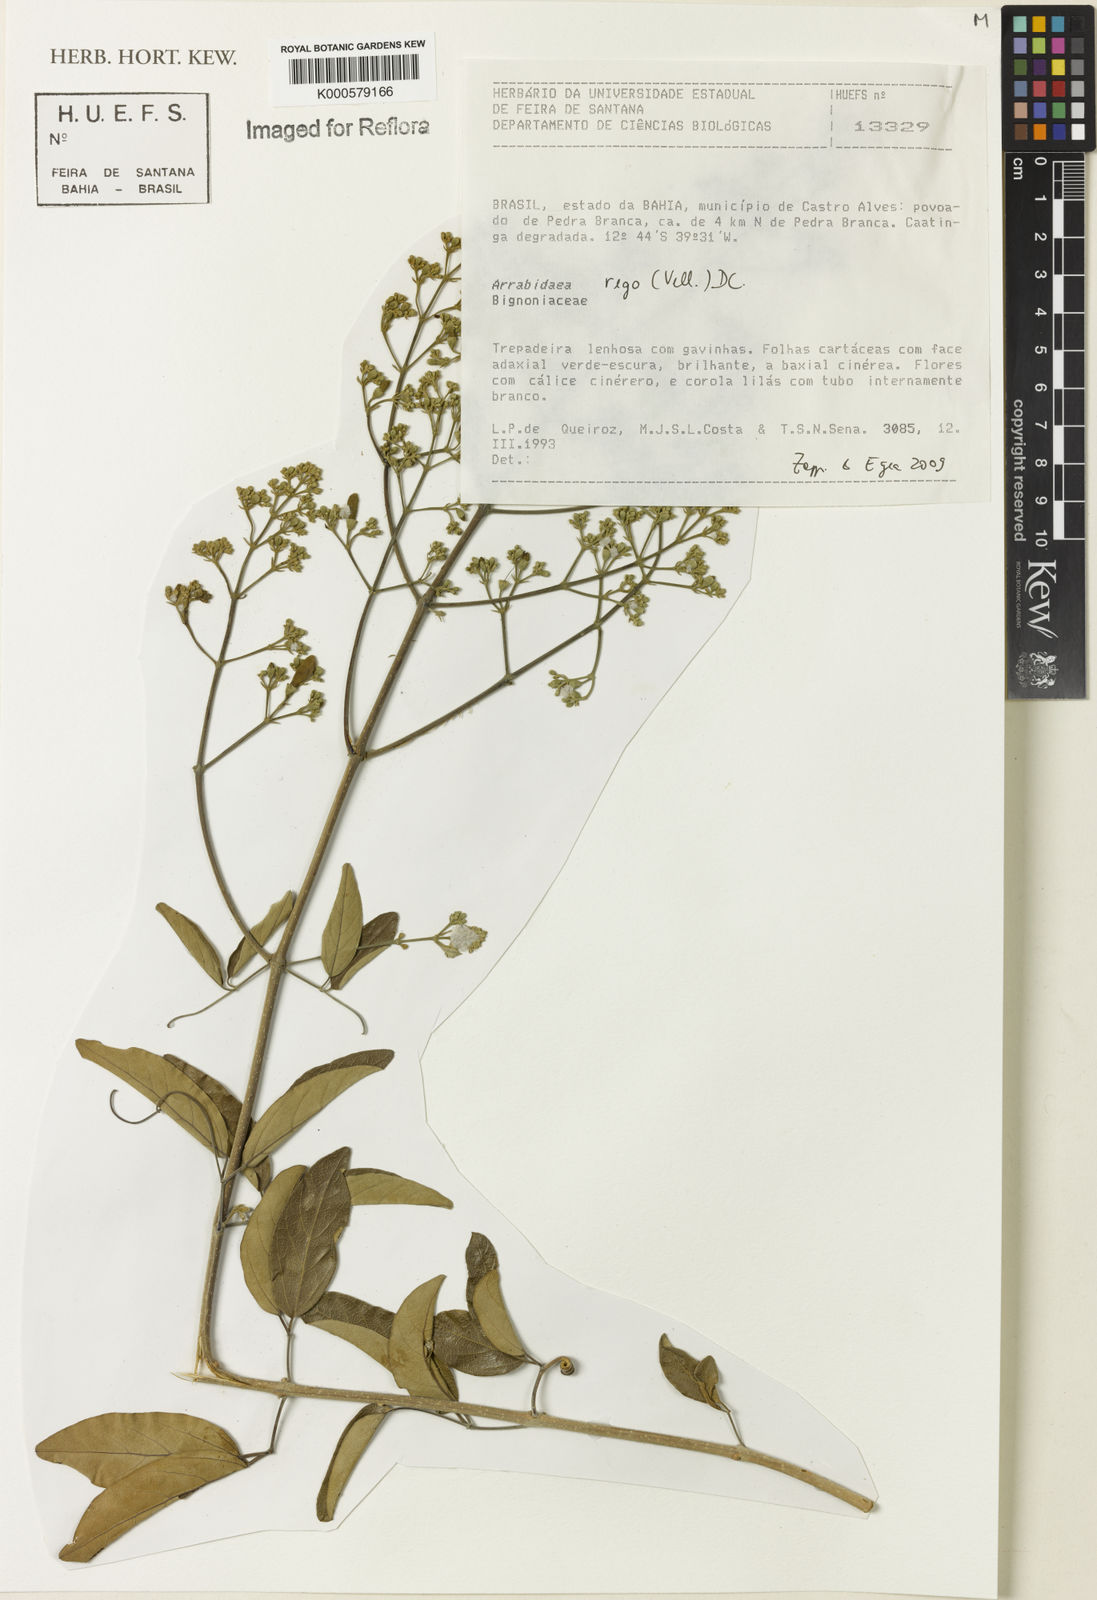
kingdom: Plantae
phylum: Tracheophyta
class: Magnoliopsida
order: Rosales
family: Rhamnaceae
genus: Arrabidaea
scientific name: Arrabidaea
